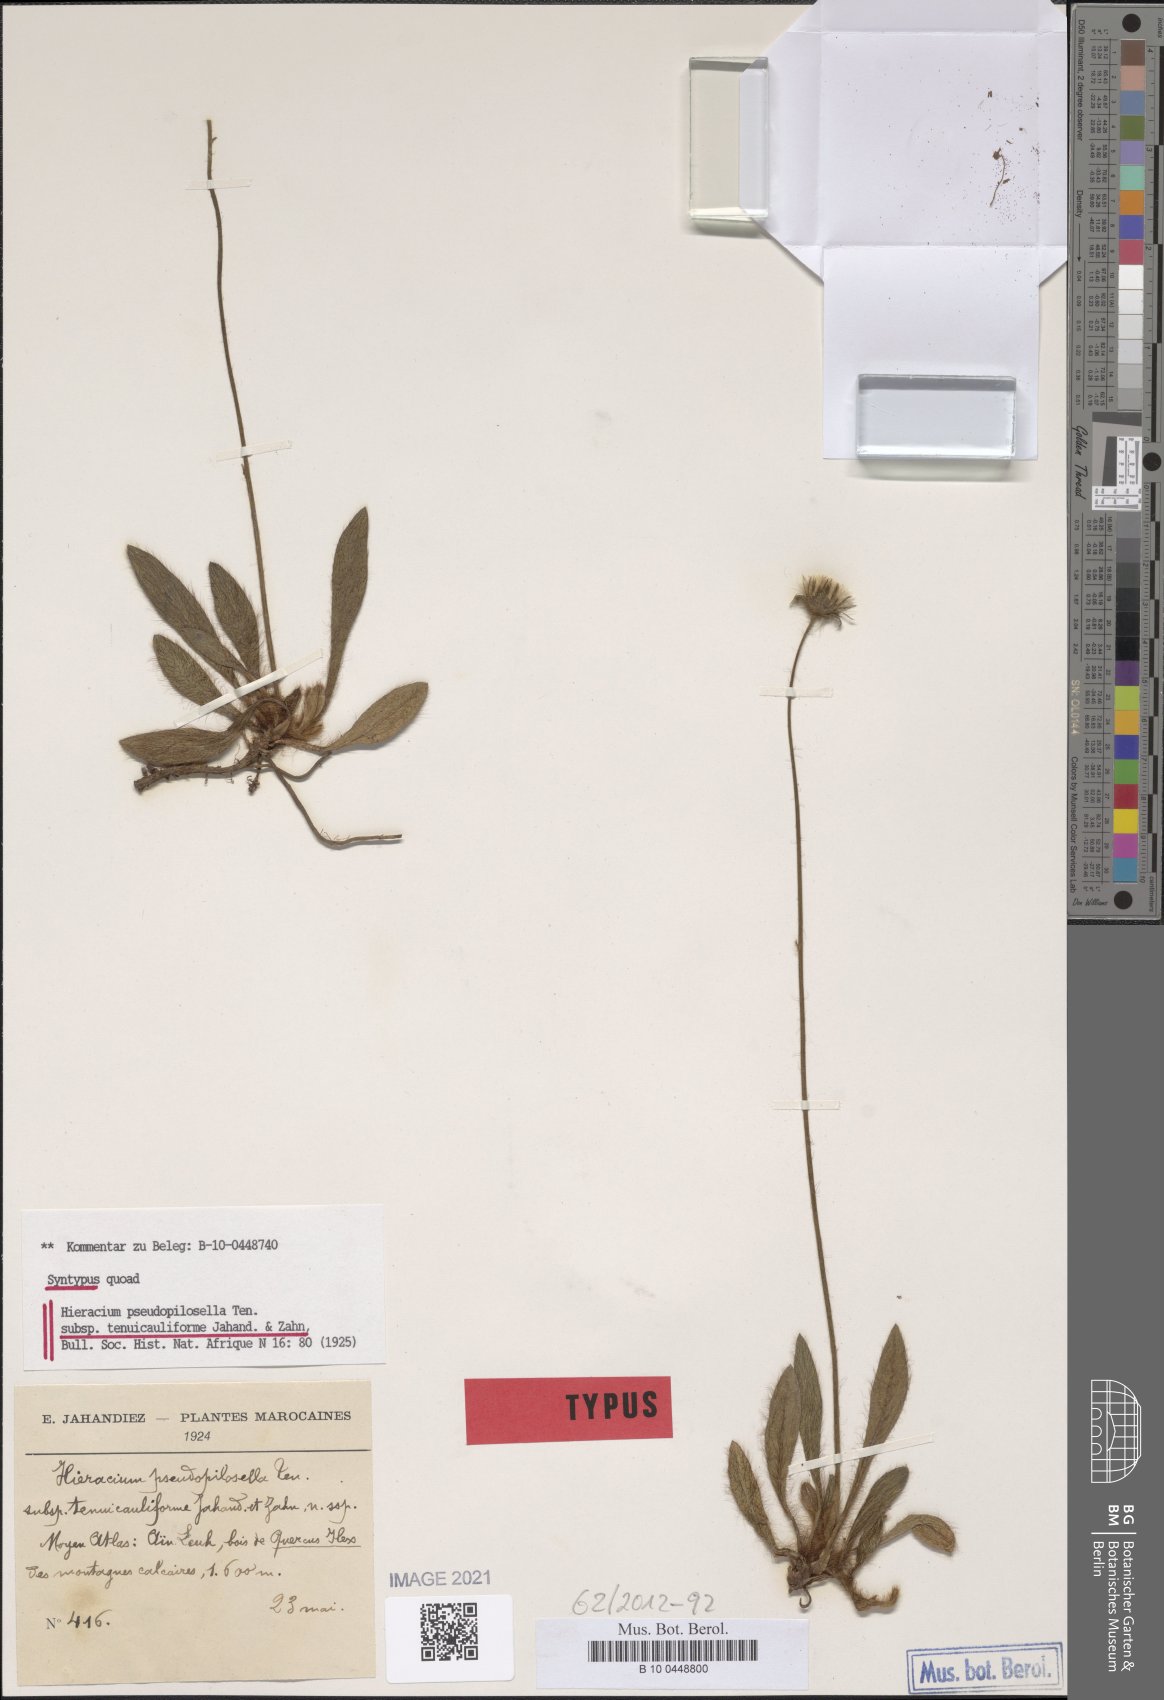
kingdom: Plantae
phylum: Tracheophyta
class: Magnoliopsida
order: Asterales
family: Asteraceae
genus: Pilosella
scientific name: Pilosella pseudopilosella
